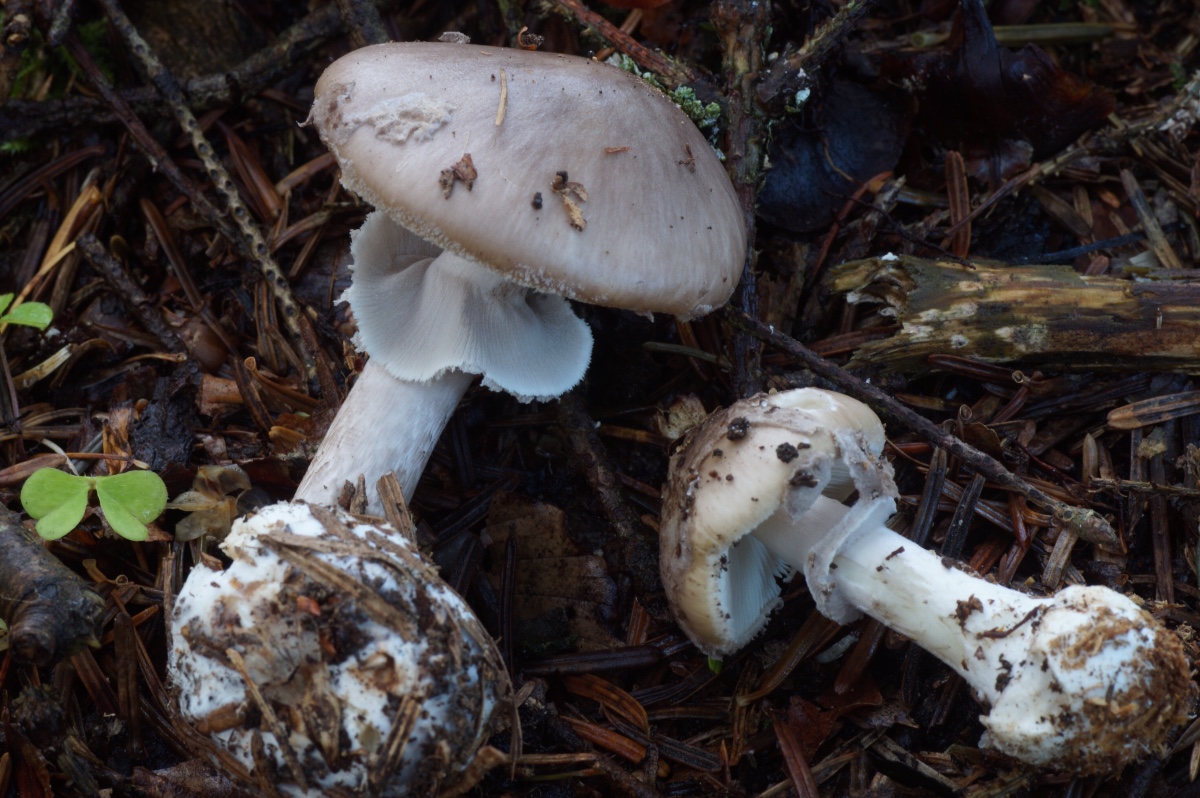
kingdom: Fungi
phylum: Basidiomycota
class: Agaricomycetes
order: Agaricales
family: Amanitaceae
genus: Amanita
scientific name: Amanita porphyria
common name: porfyr-fluesvamp
